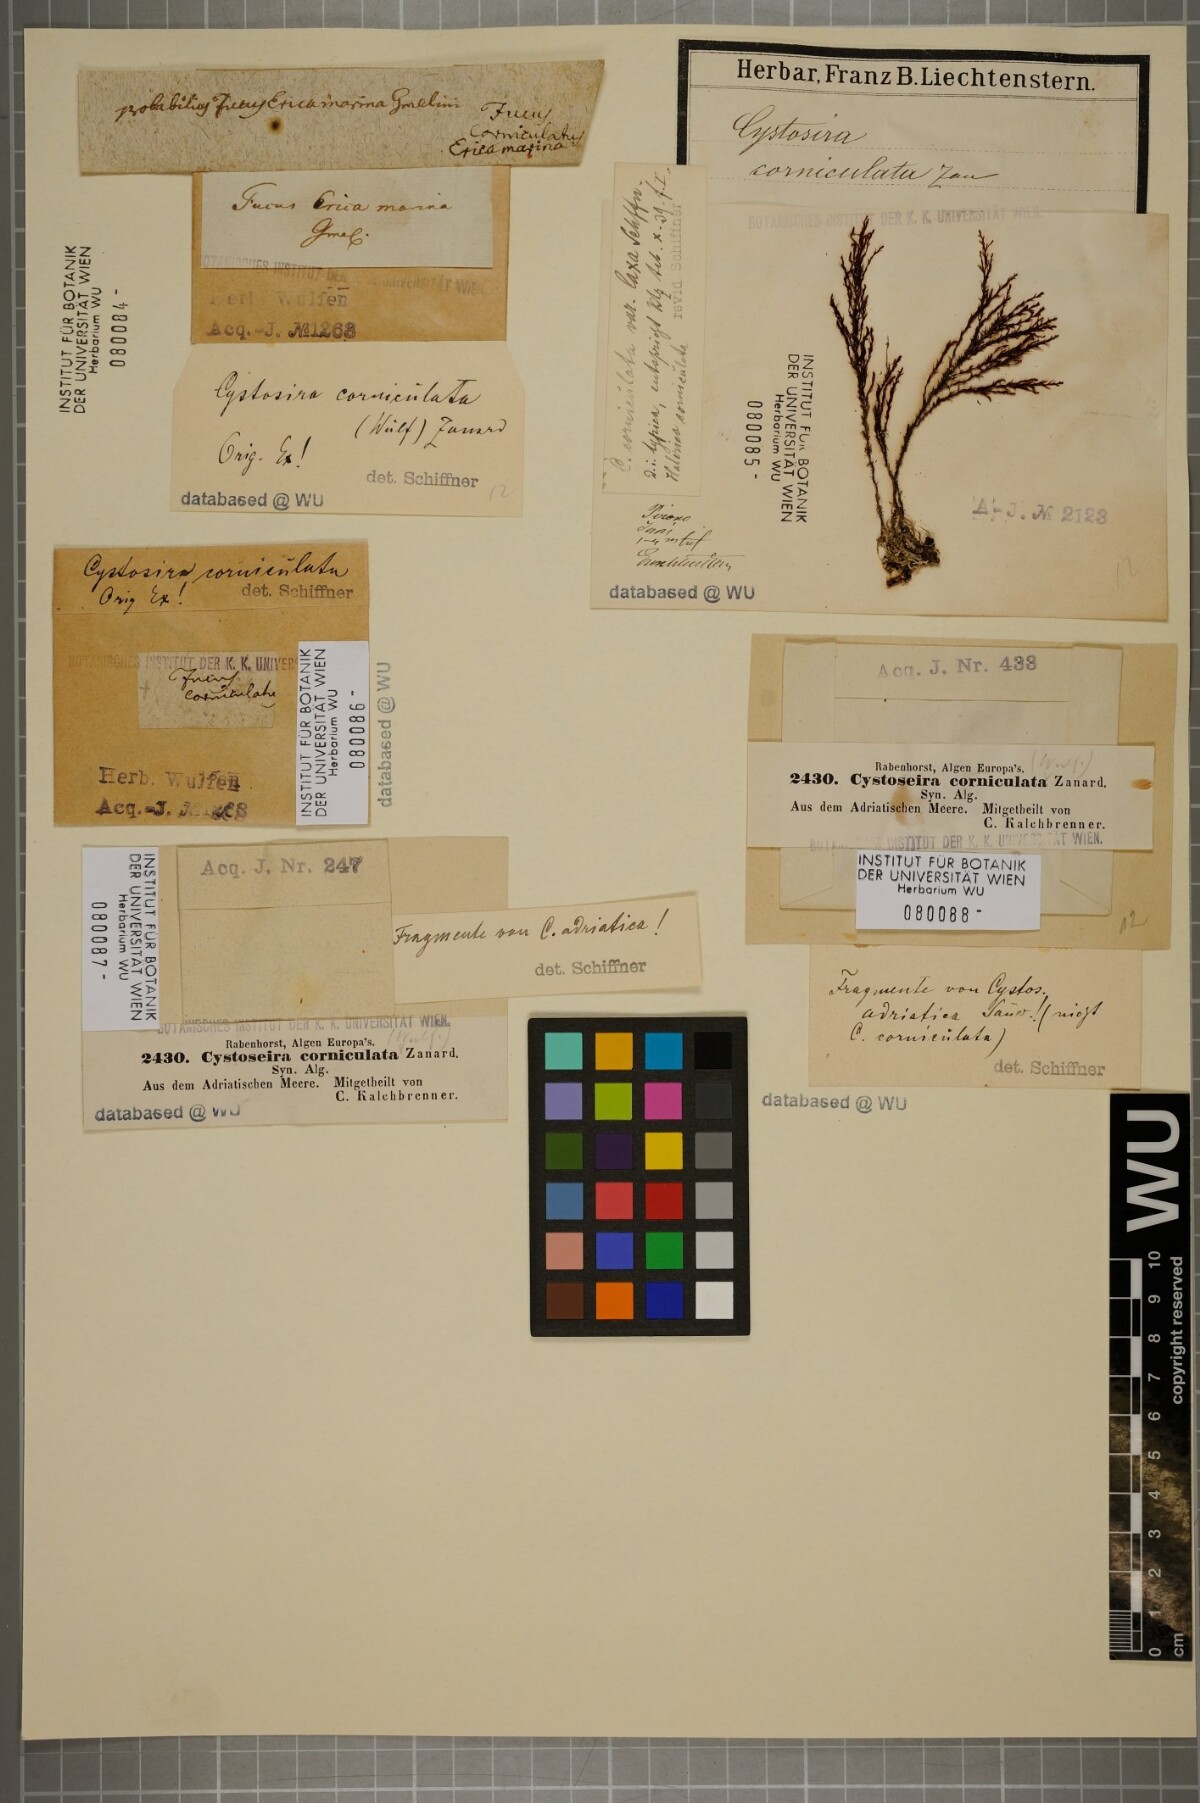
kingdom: Chromista
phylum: Ochrophyta
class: Phaeophyceae
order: Fucales
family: Sargassaceae
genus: Cystoseira
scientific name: Cystoseira corniculata
